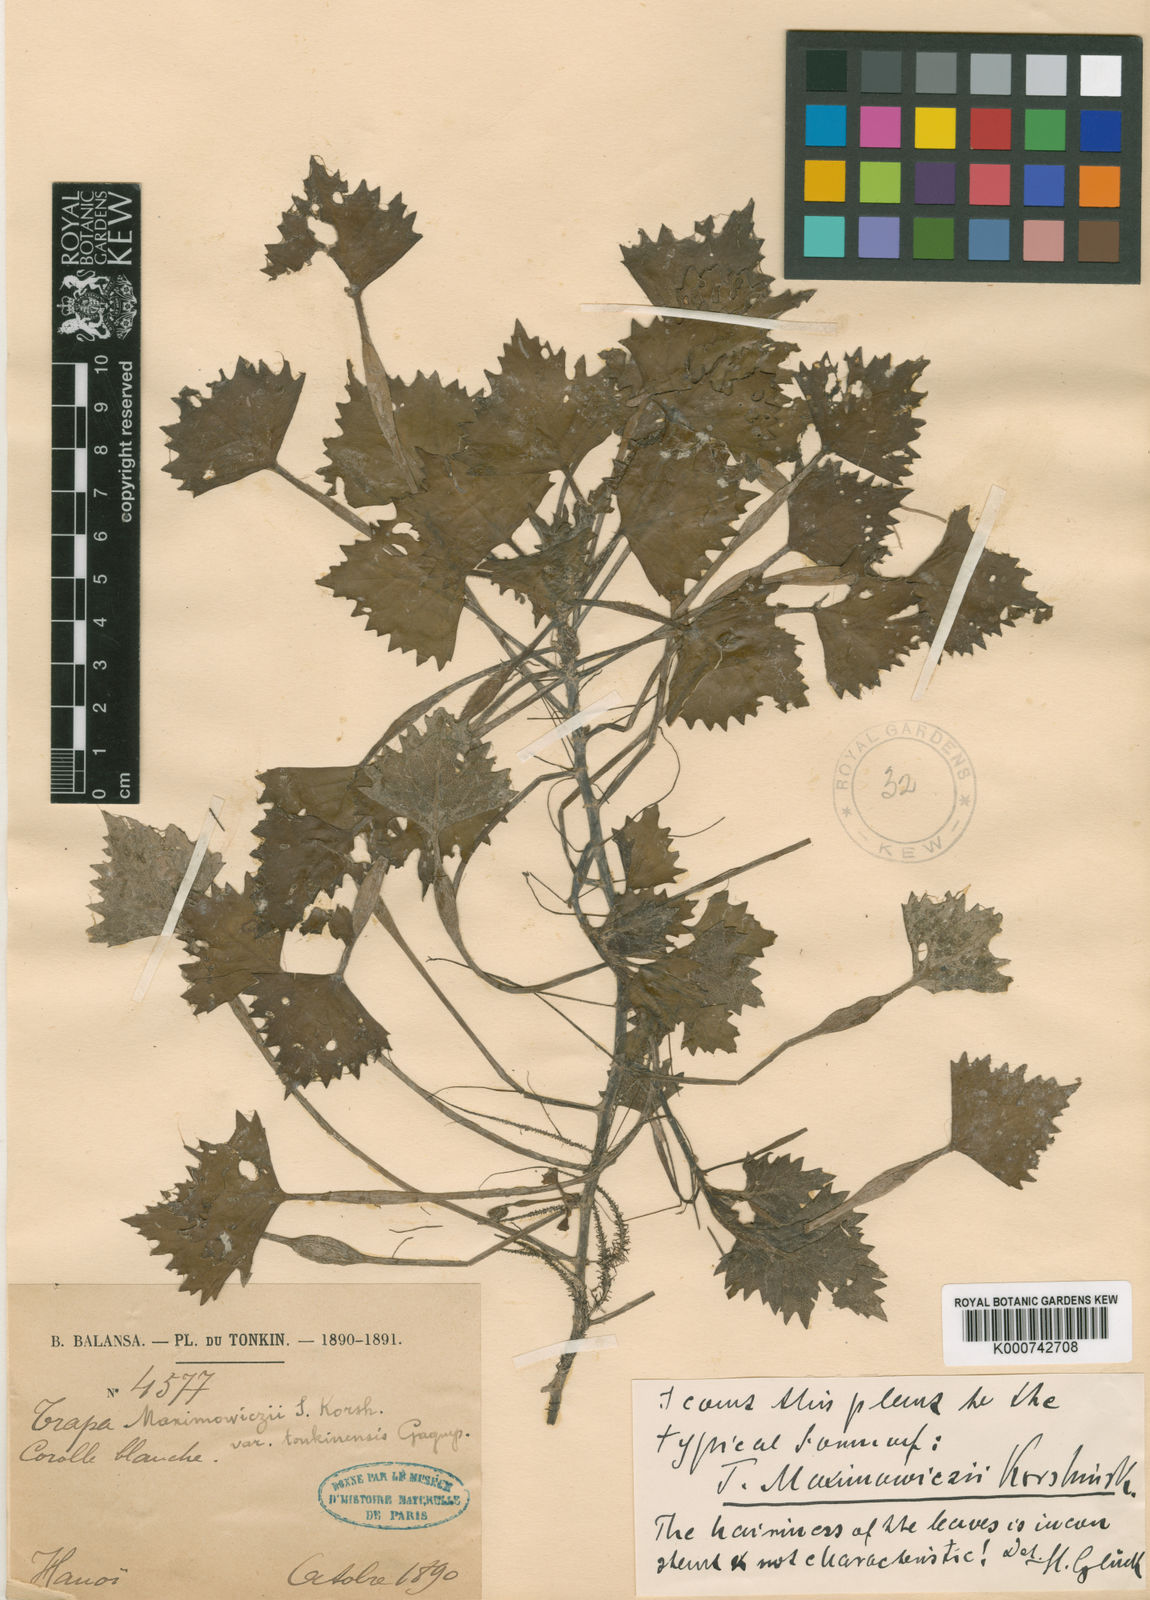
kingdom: Plantae
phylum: Tracheophyta
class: Magnoliopsida
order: Myrtales
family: Lythraceae
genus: Trapa
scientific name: Trapa natans
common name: Water chestnut
